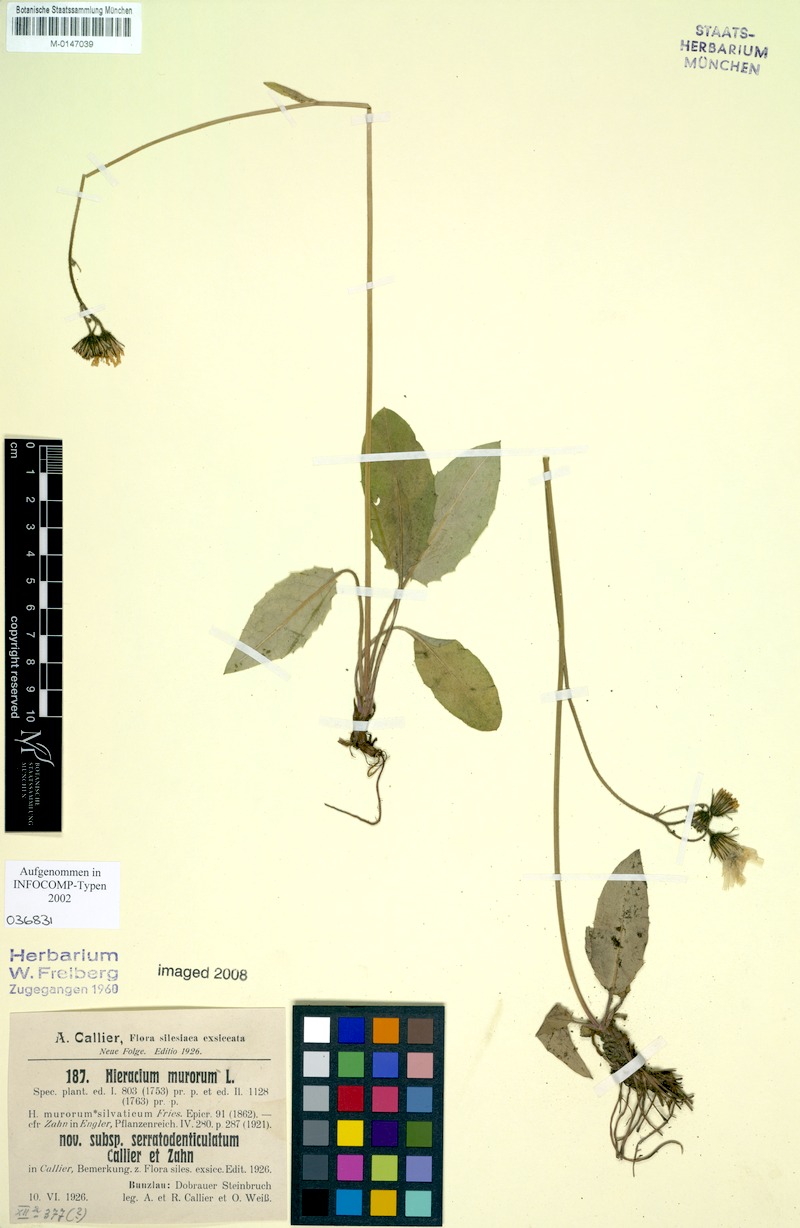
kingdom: Plantae
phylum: Tracheophyta
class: Magnoliopsida
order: Asterales
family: Asteraceae
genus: Hieracium
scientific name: Hieracium murorum
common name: Wall hawkweed
